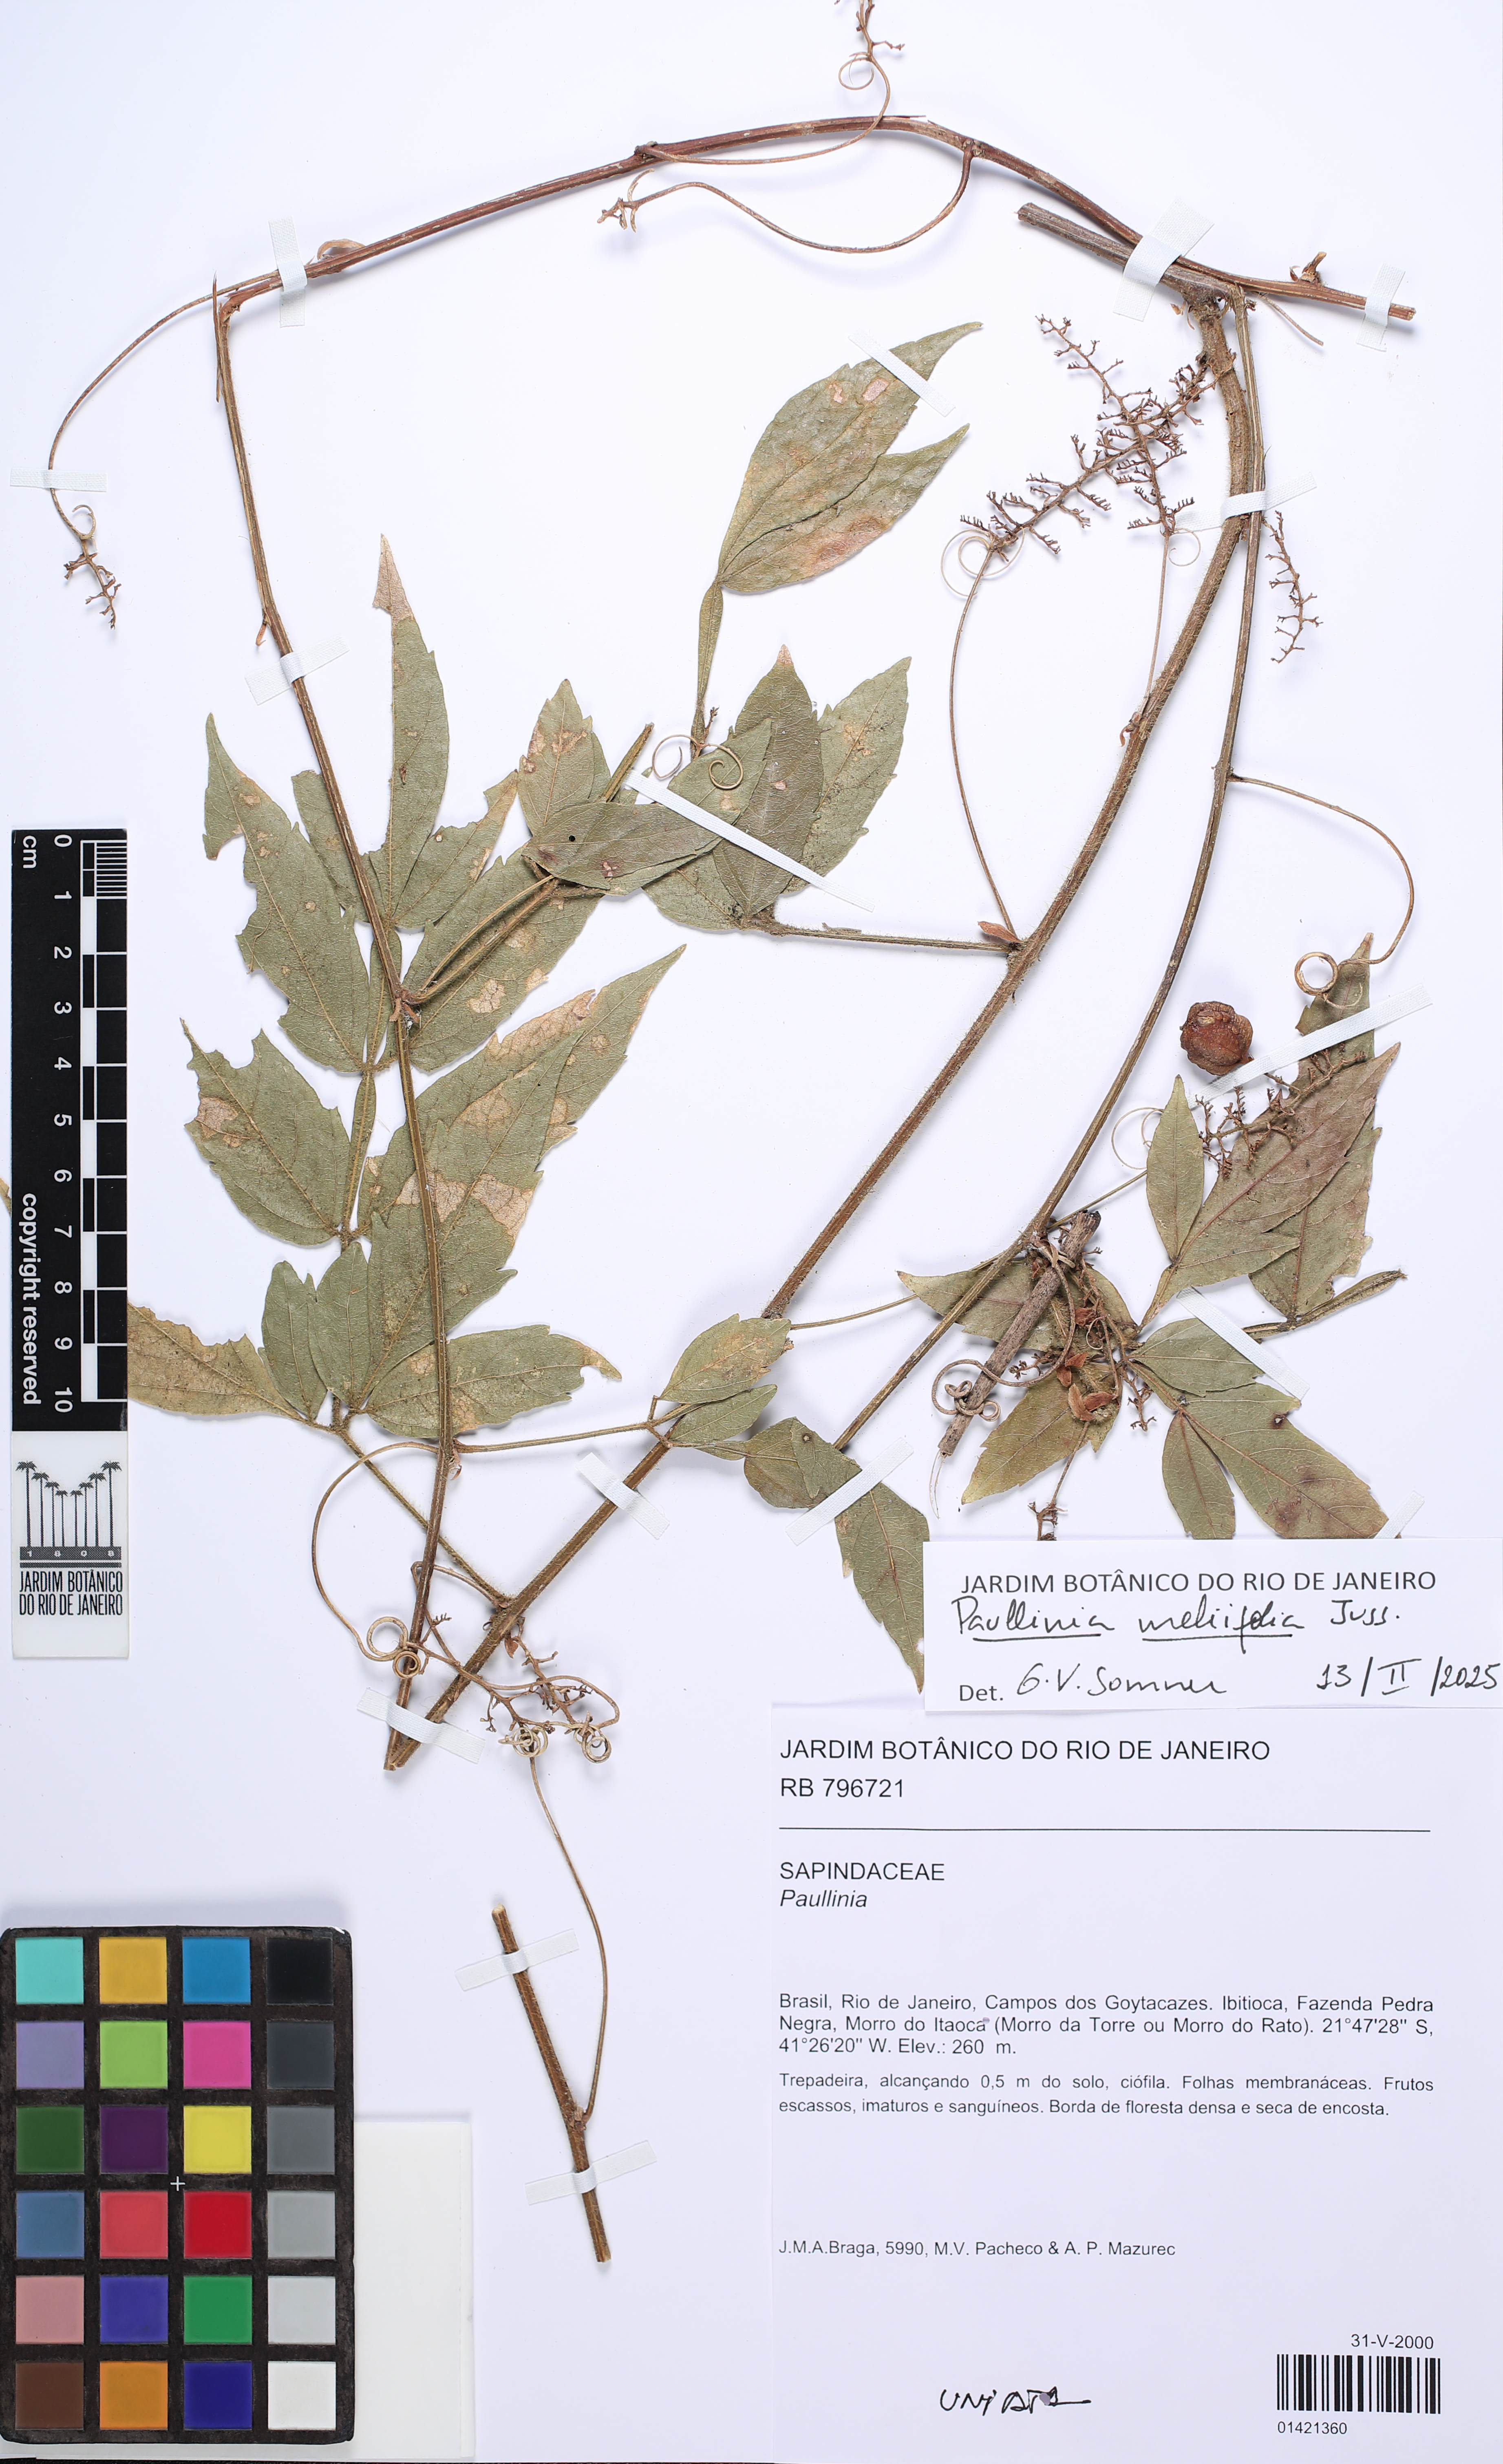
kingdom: Plantae
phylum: Tracheophyta
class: Magnoliopsida
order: Sapindales
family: Sapindaceae
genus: Paullinia
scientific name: Paullinia
